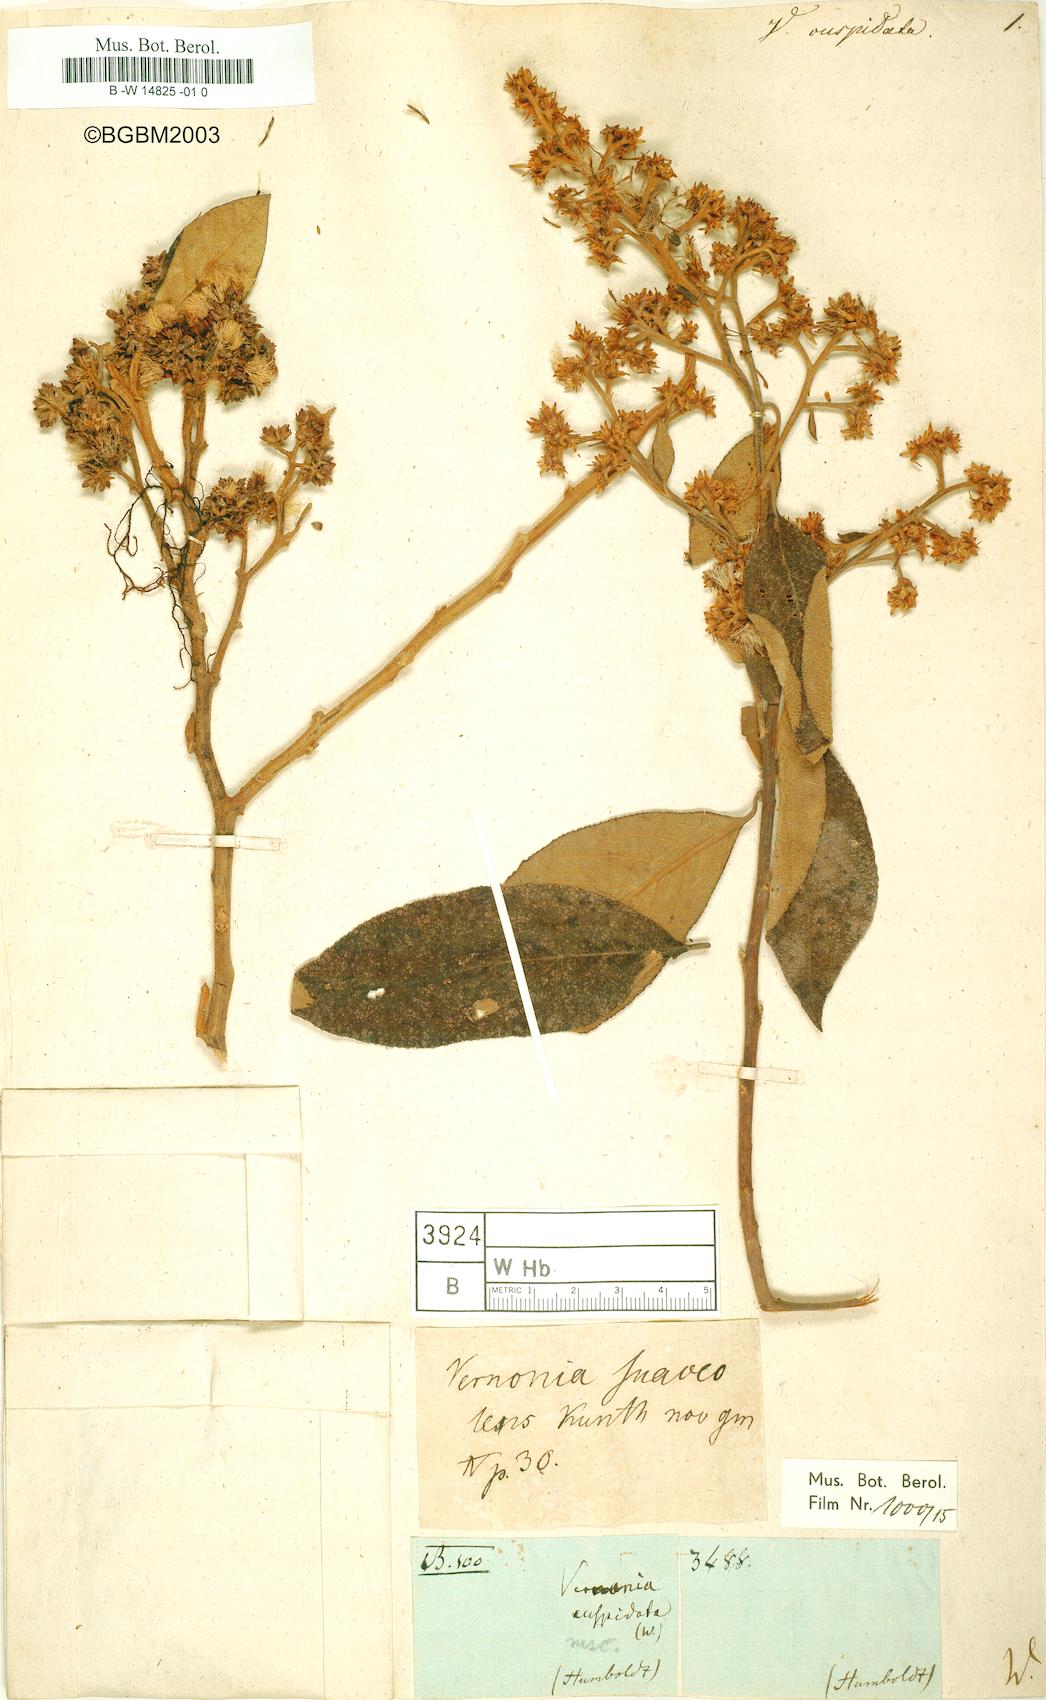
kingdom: Plantae
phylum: Tracheophyta
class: Magnoliopsida
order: Asterales
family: Asteraceae
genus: Vernonia
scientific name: Vernonia cuspidata
